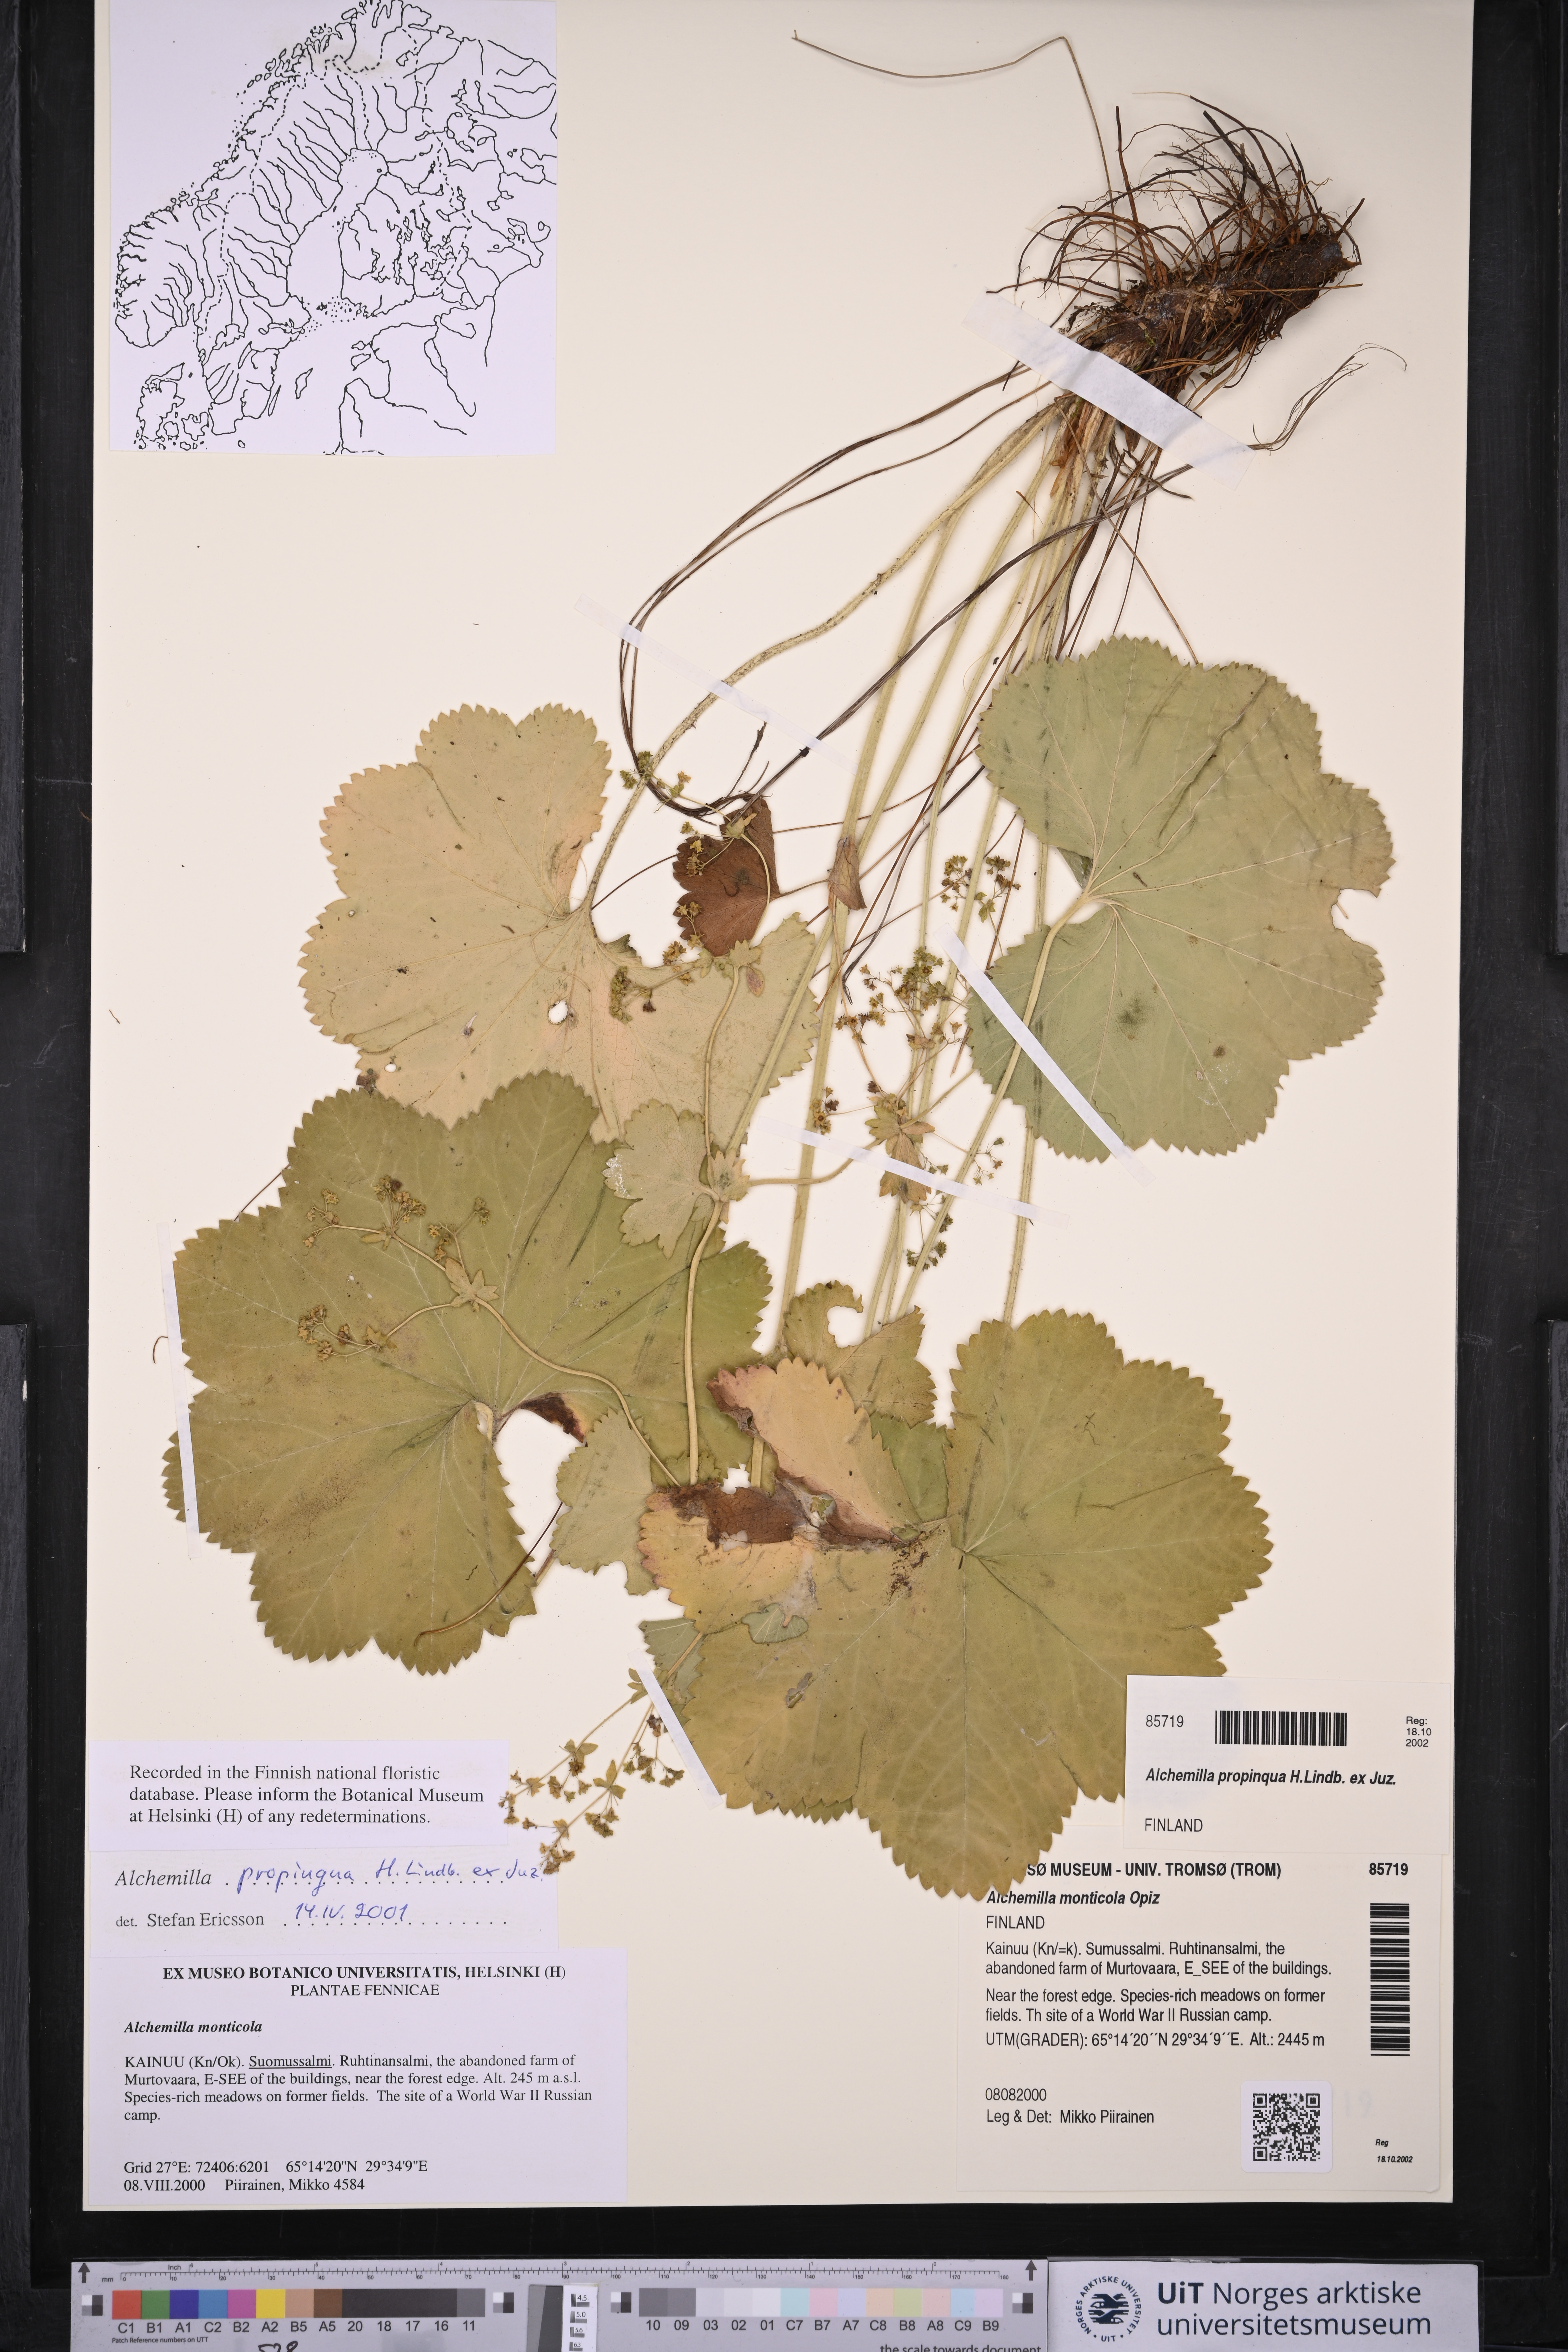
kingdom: Plantae
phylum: Tracheophyta
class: Magnoliopsida
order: Rosales
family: Rosaceae
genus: Alchemilla
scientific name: Alchemilla propinqua
